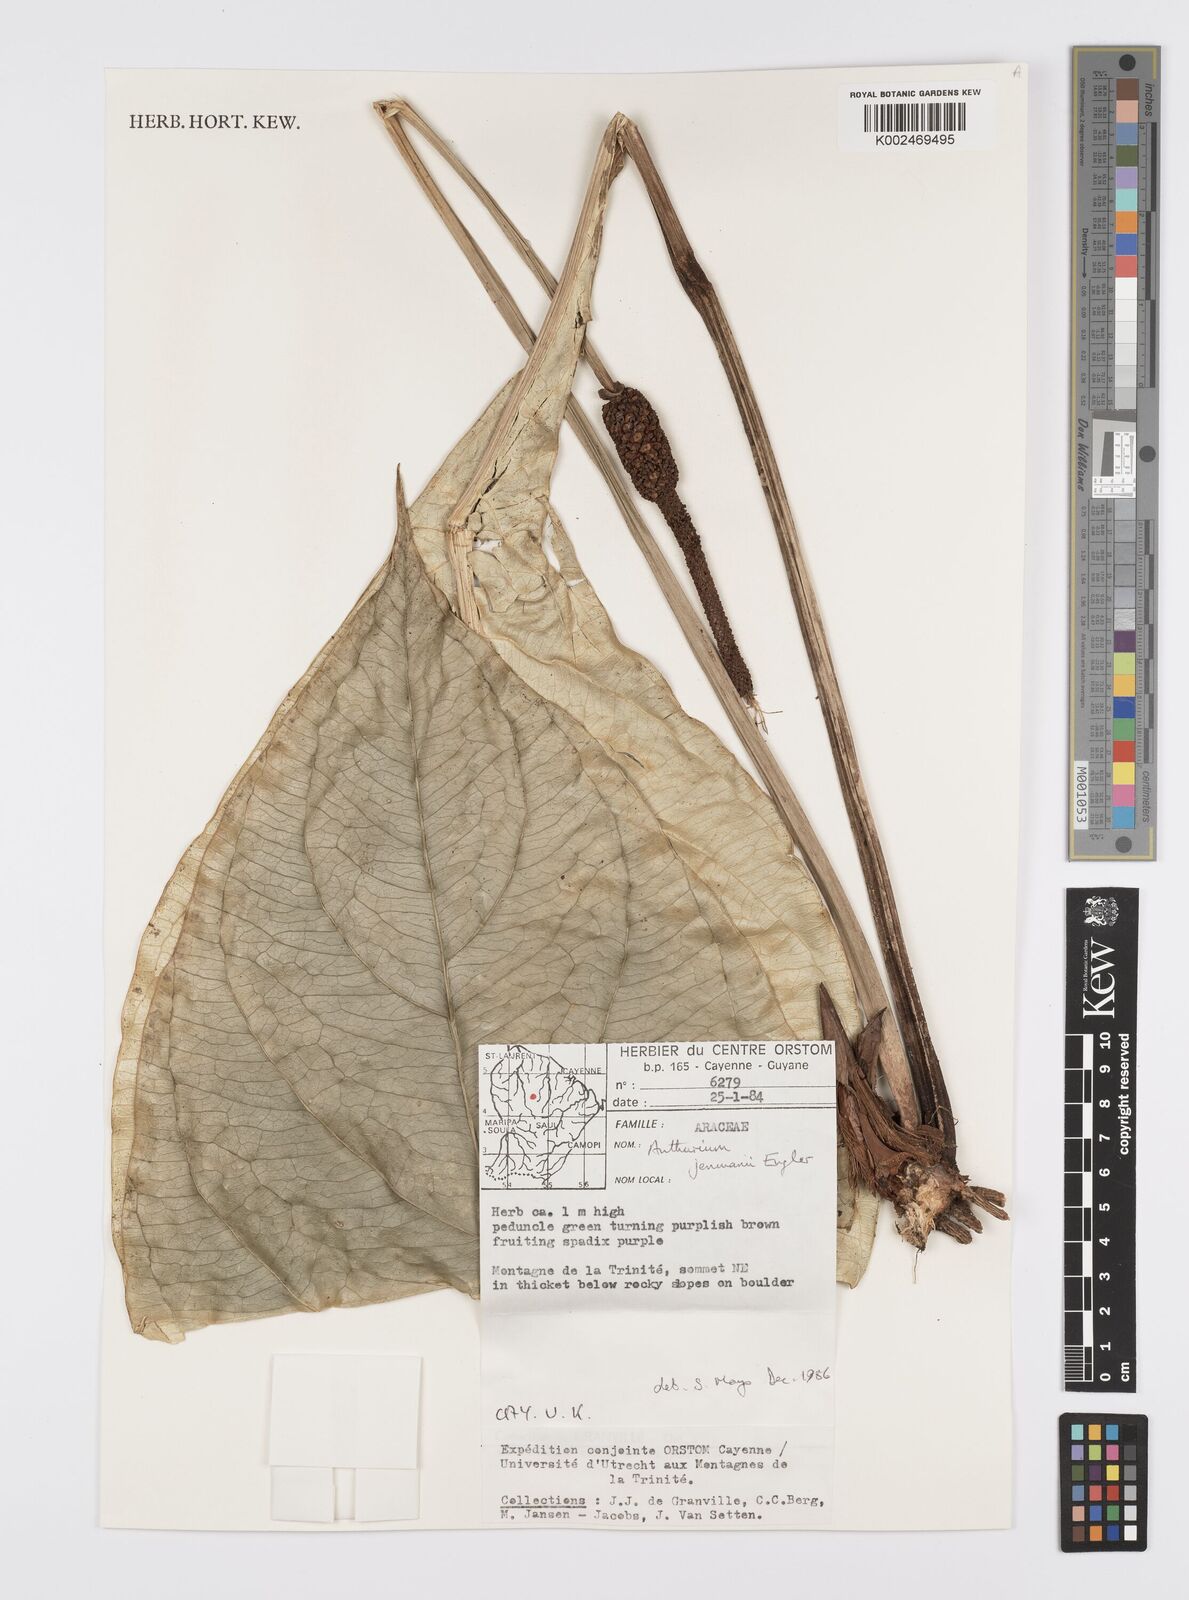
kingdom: Plantae
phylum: Tracheophyta
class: Liliopsida
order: Alismatales
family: Araceae
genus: Anthurium
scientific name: Anthurium jenmanii
